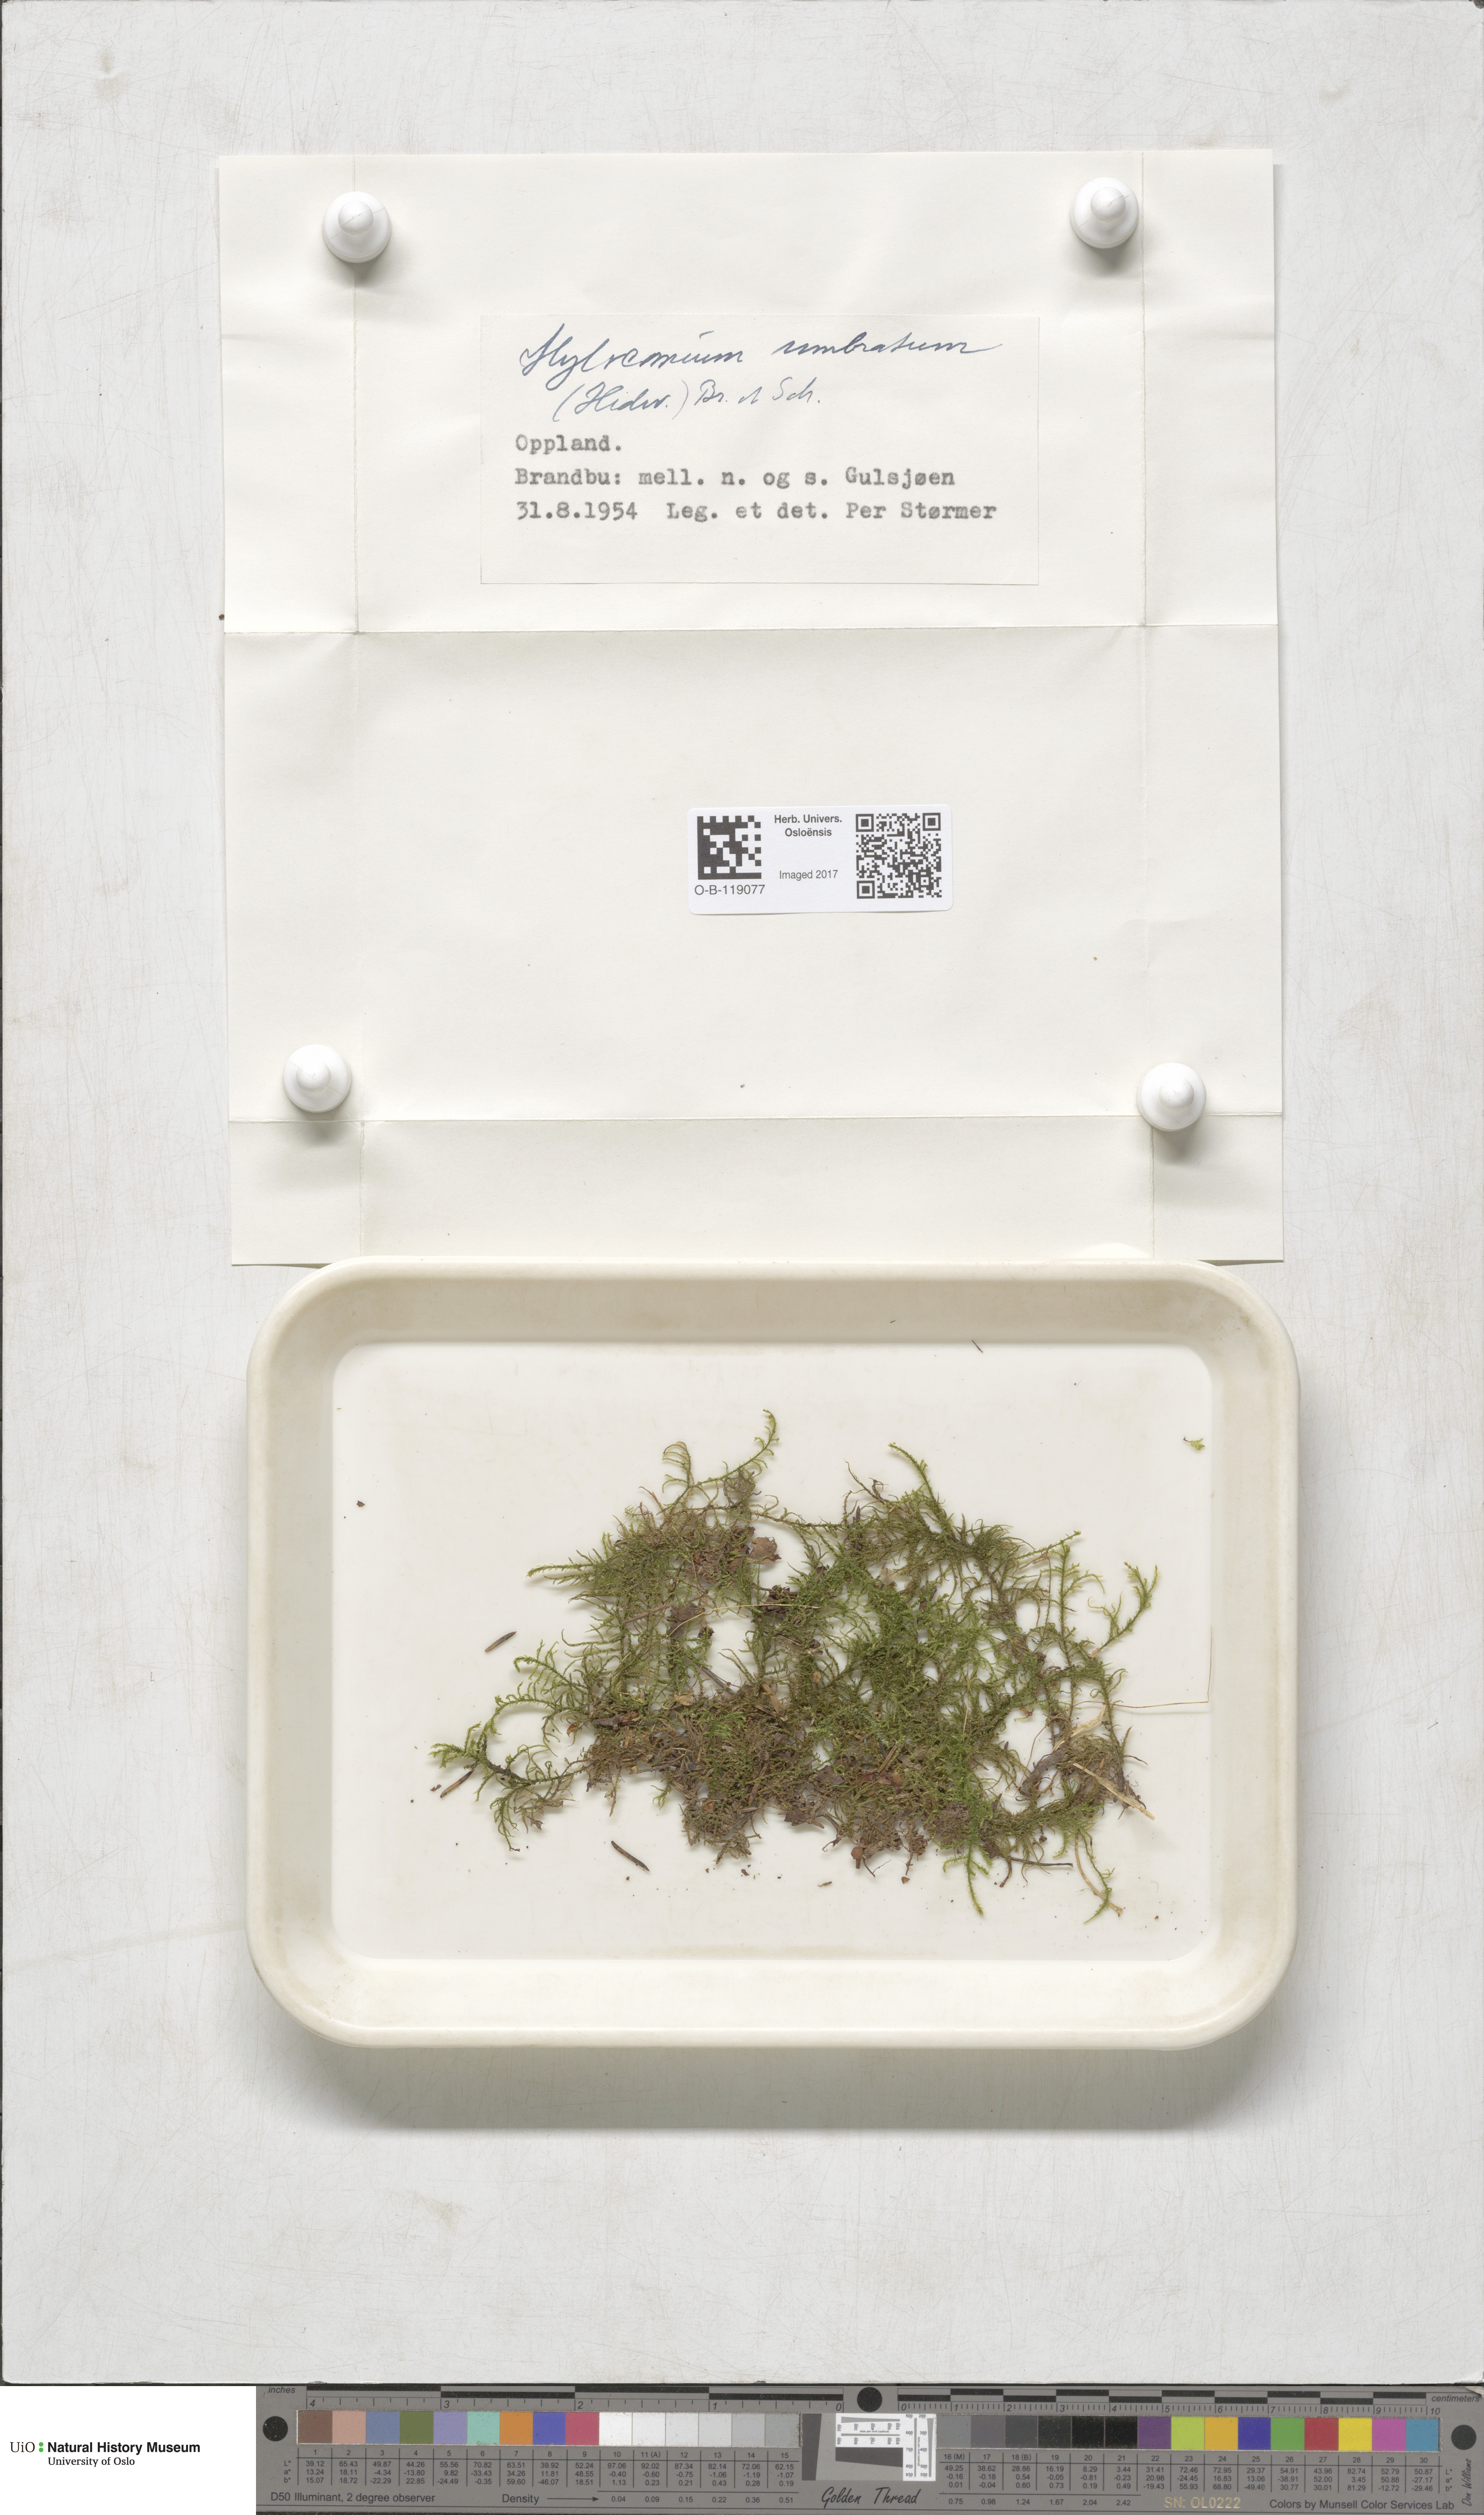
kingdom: Plantae
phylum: Bryophyta
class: Bryopsida
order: Hypnales
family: Hylocomiaceae
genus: Hylocomiastrum
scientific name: Hylocomiastrum umbratum
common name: Shaded woods moss
